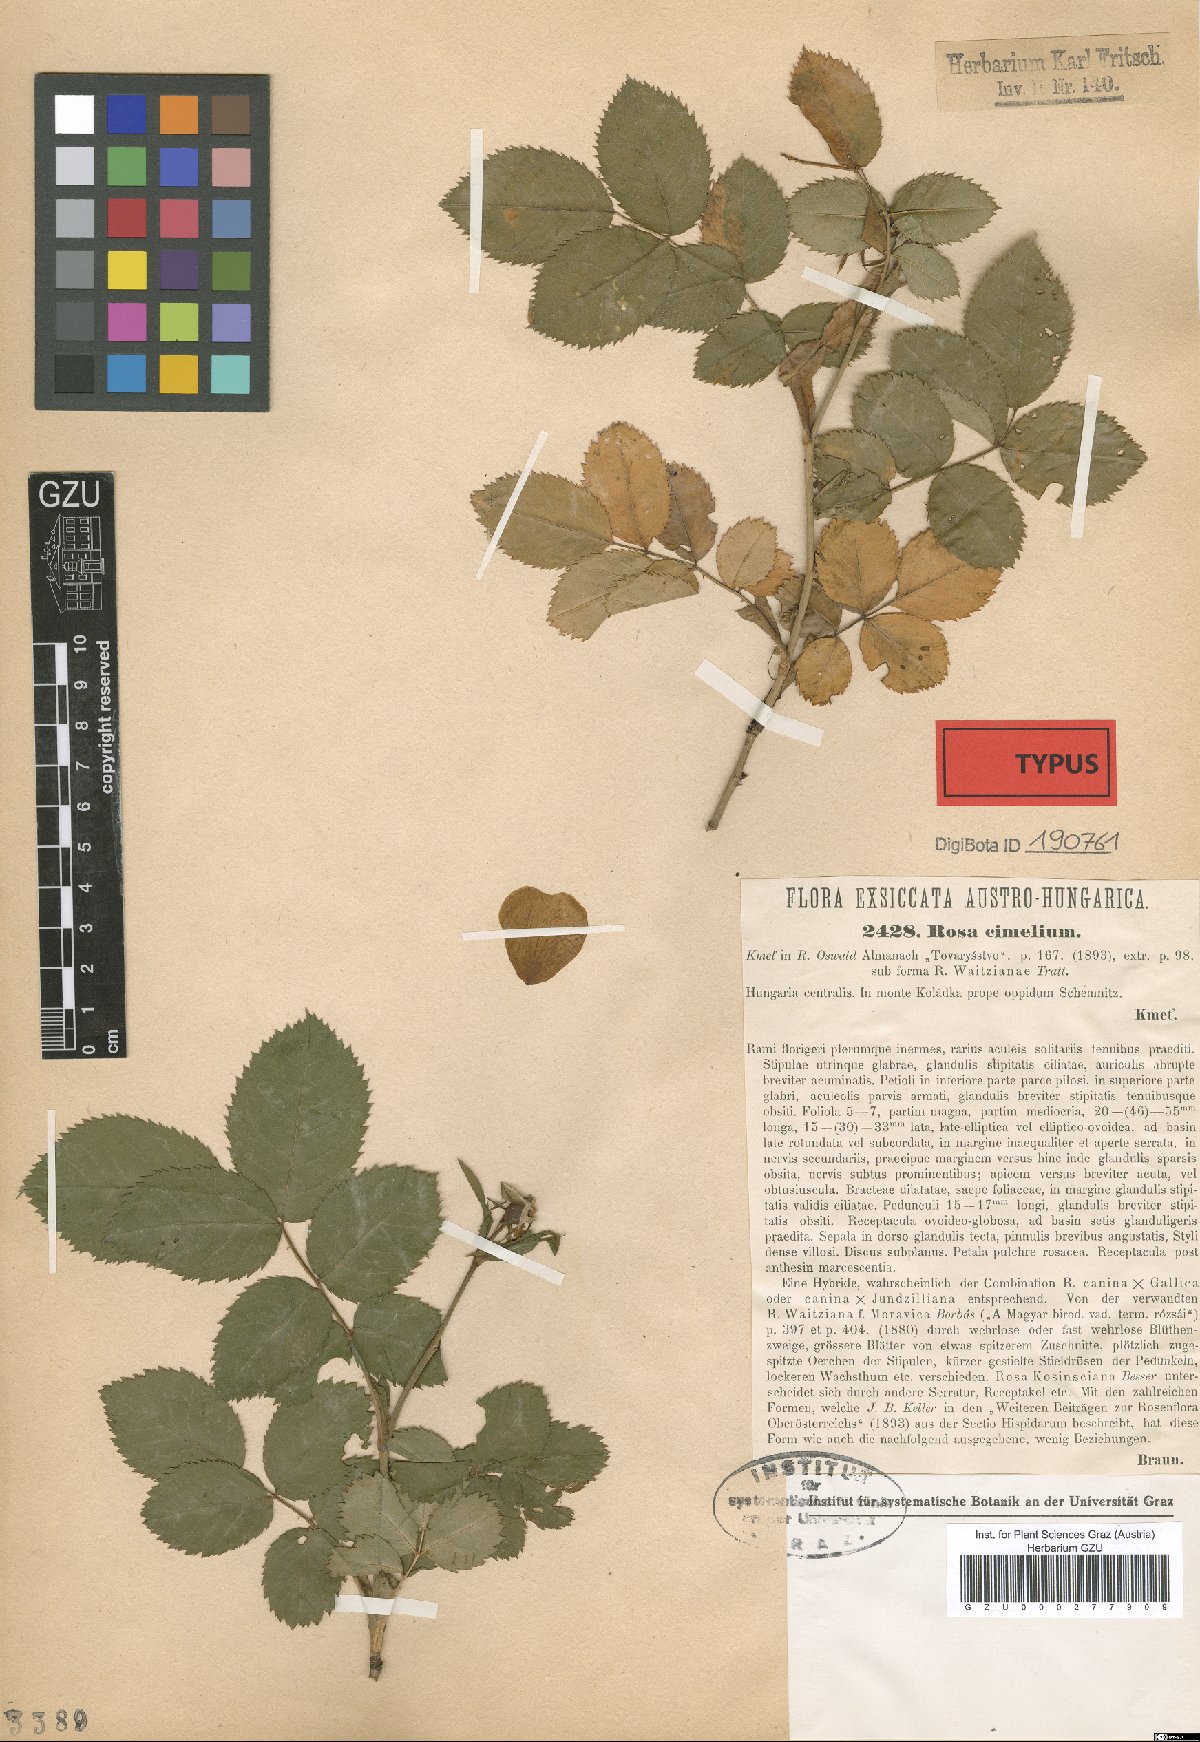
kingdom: Plantae
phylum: Tracheophyta
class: Magnoliopsida
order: Rosales
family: Rosaceae
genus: Rosa
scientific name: Rosa cimelium
